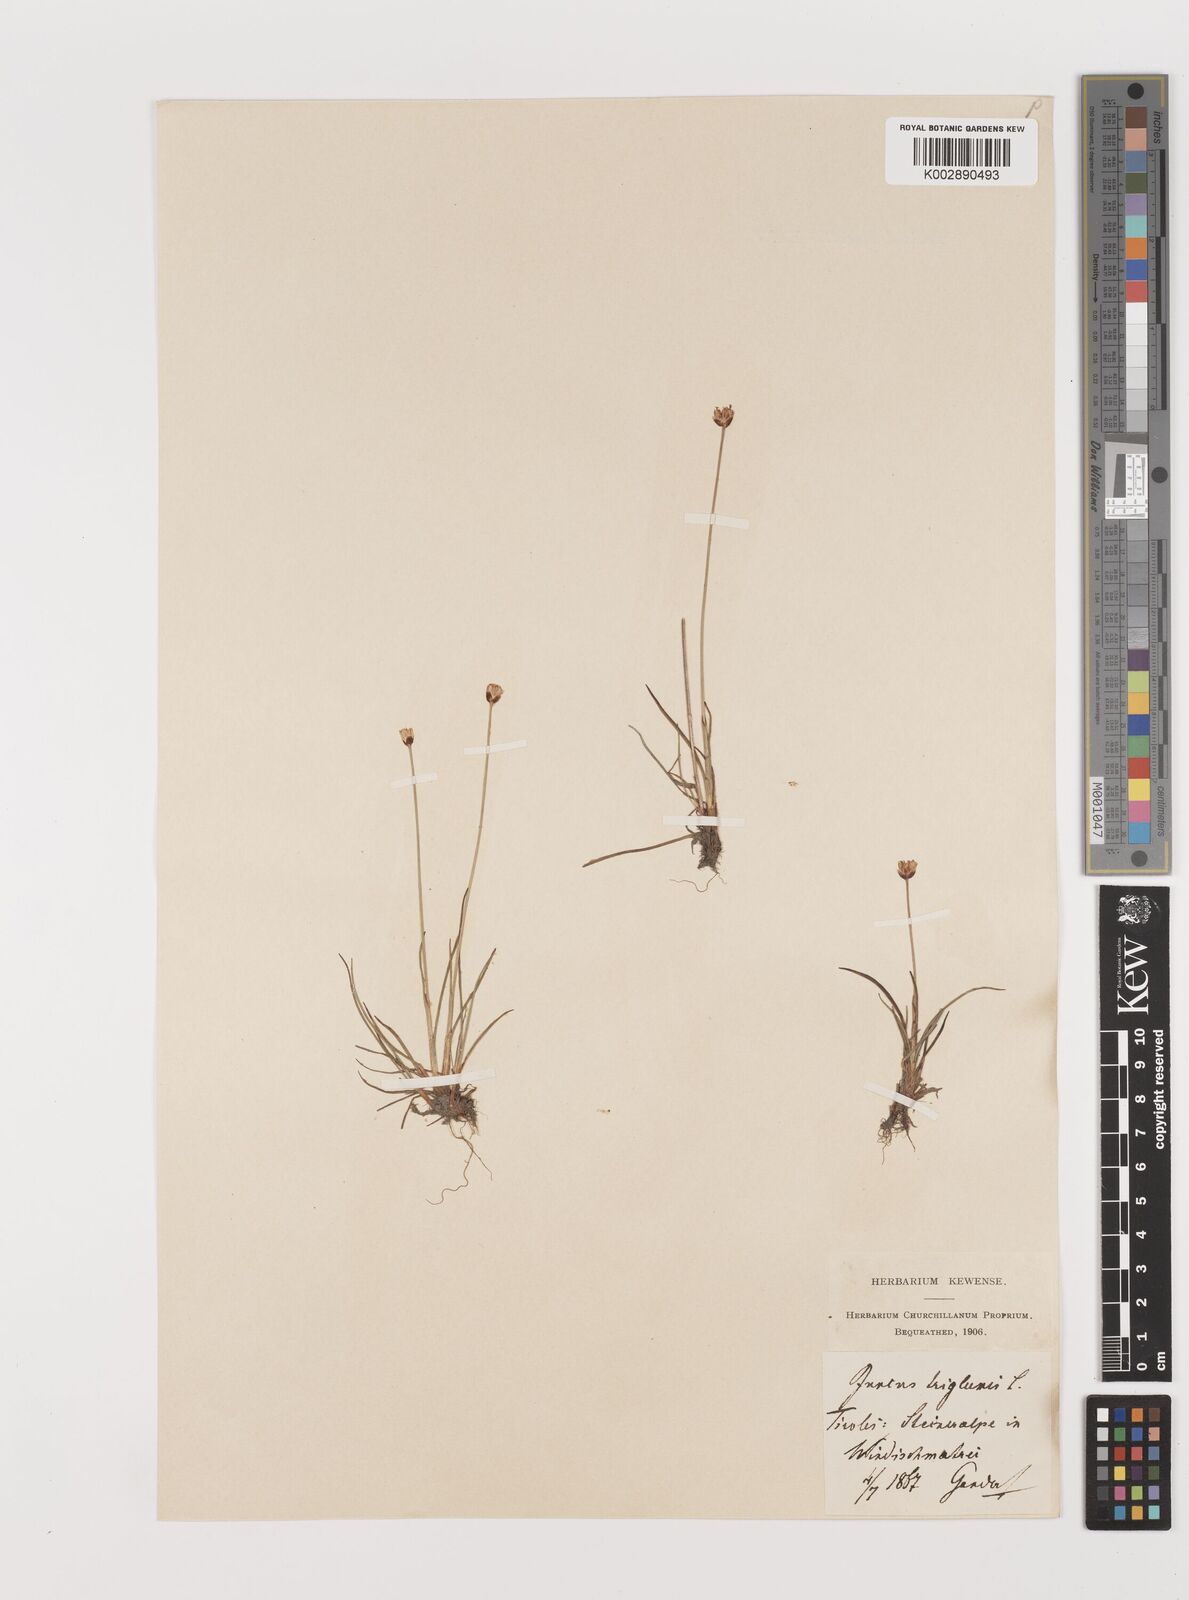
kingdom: Plantae
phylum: Tracheophyta
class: Liliopsida
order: Poales
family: Juncaceae
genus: Juncus
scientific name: Juncus triglumis
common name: Three-flowered rush
